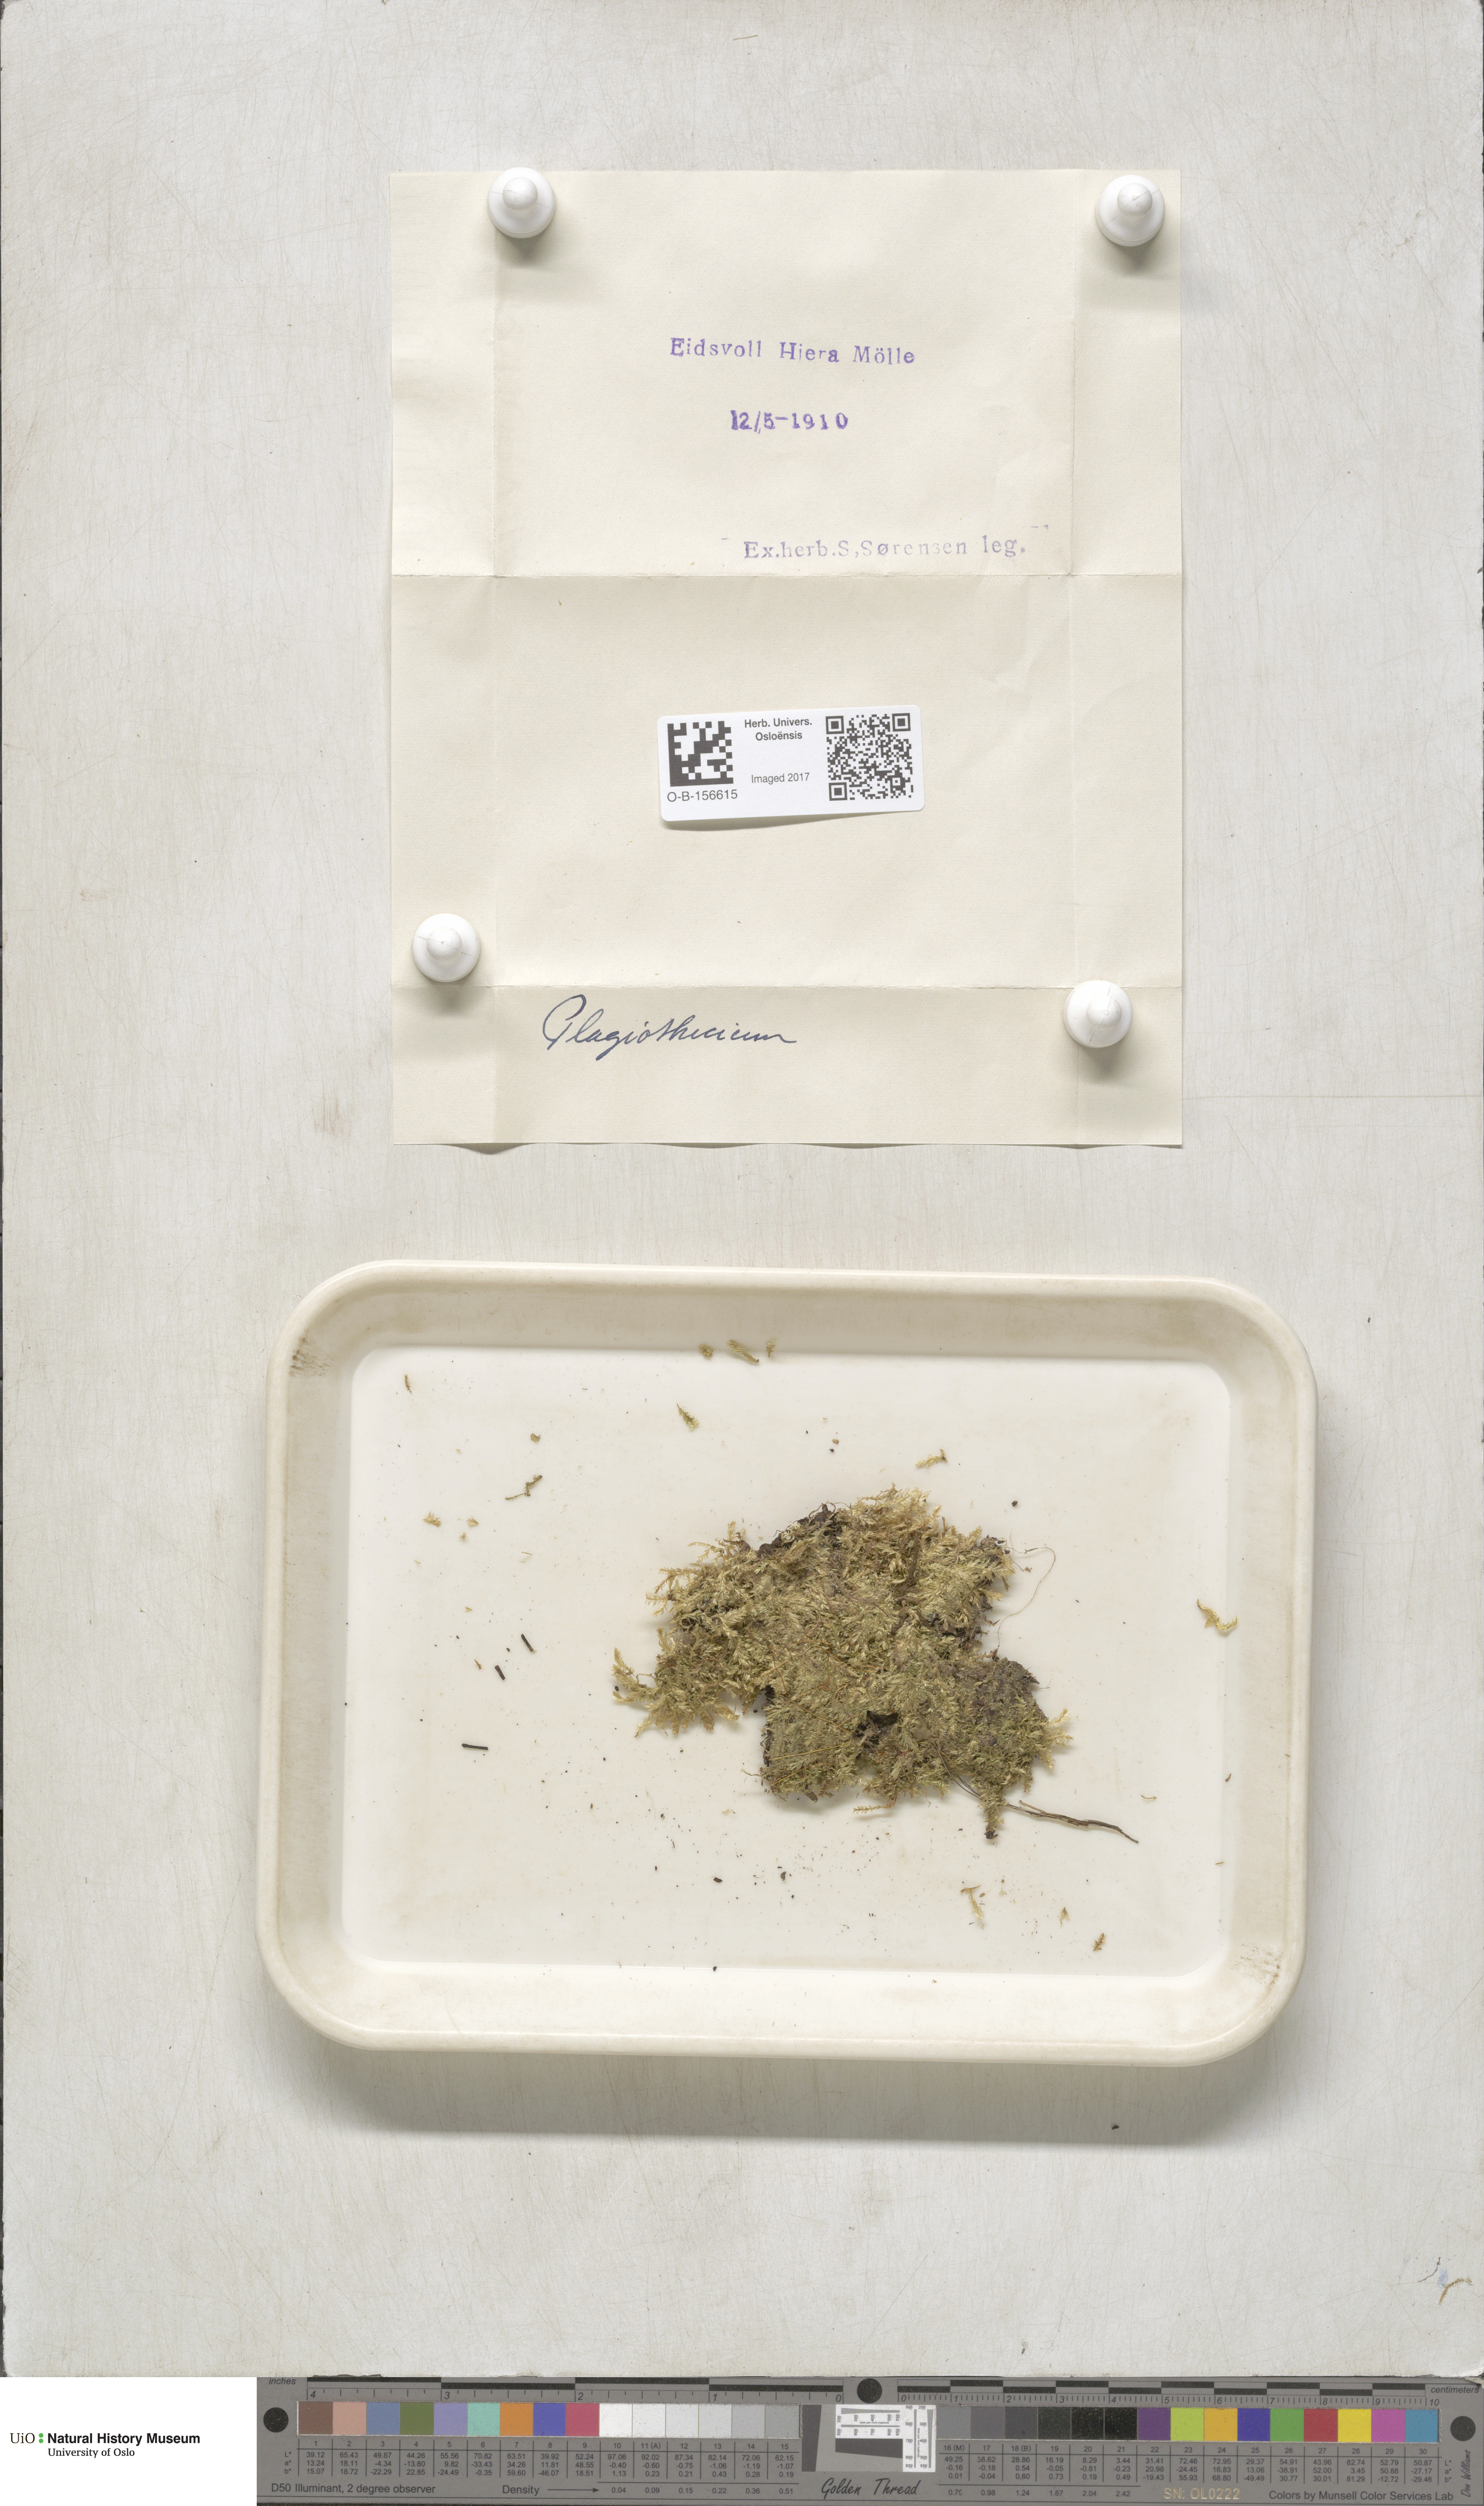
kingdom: Plantae
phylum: Bryophyta
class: Bryopsida
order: Hypnales
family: Plagiotheciaceae
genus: Plagiothecium
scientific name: Plagiothecium
